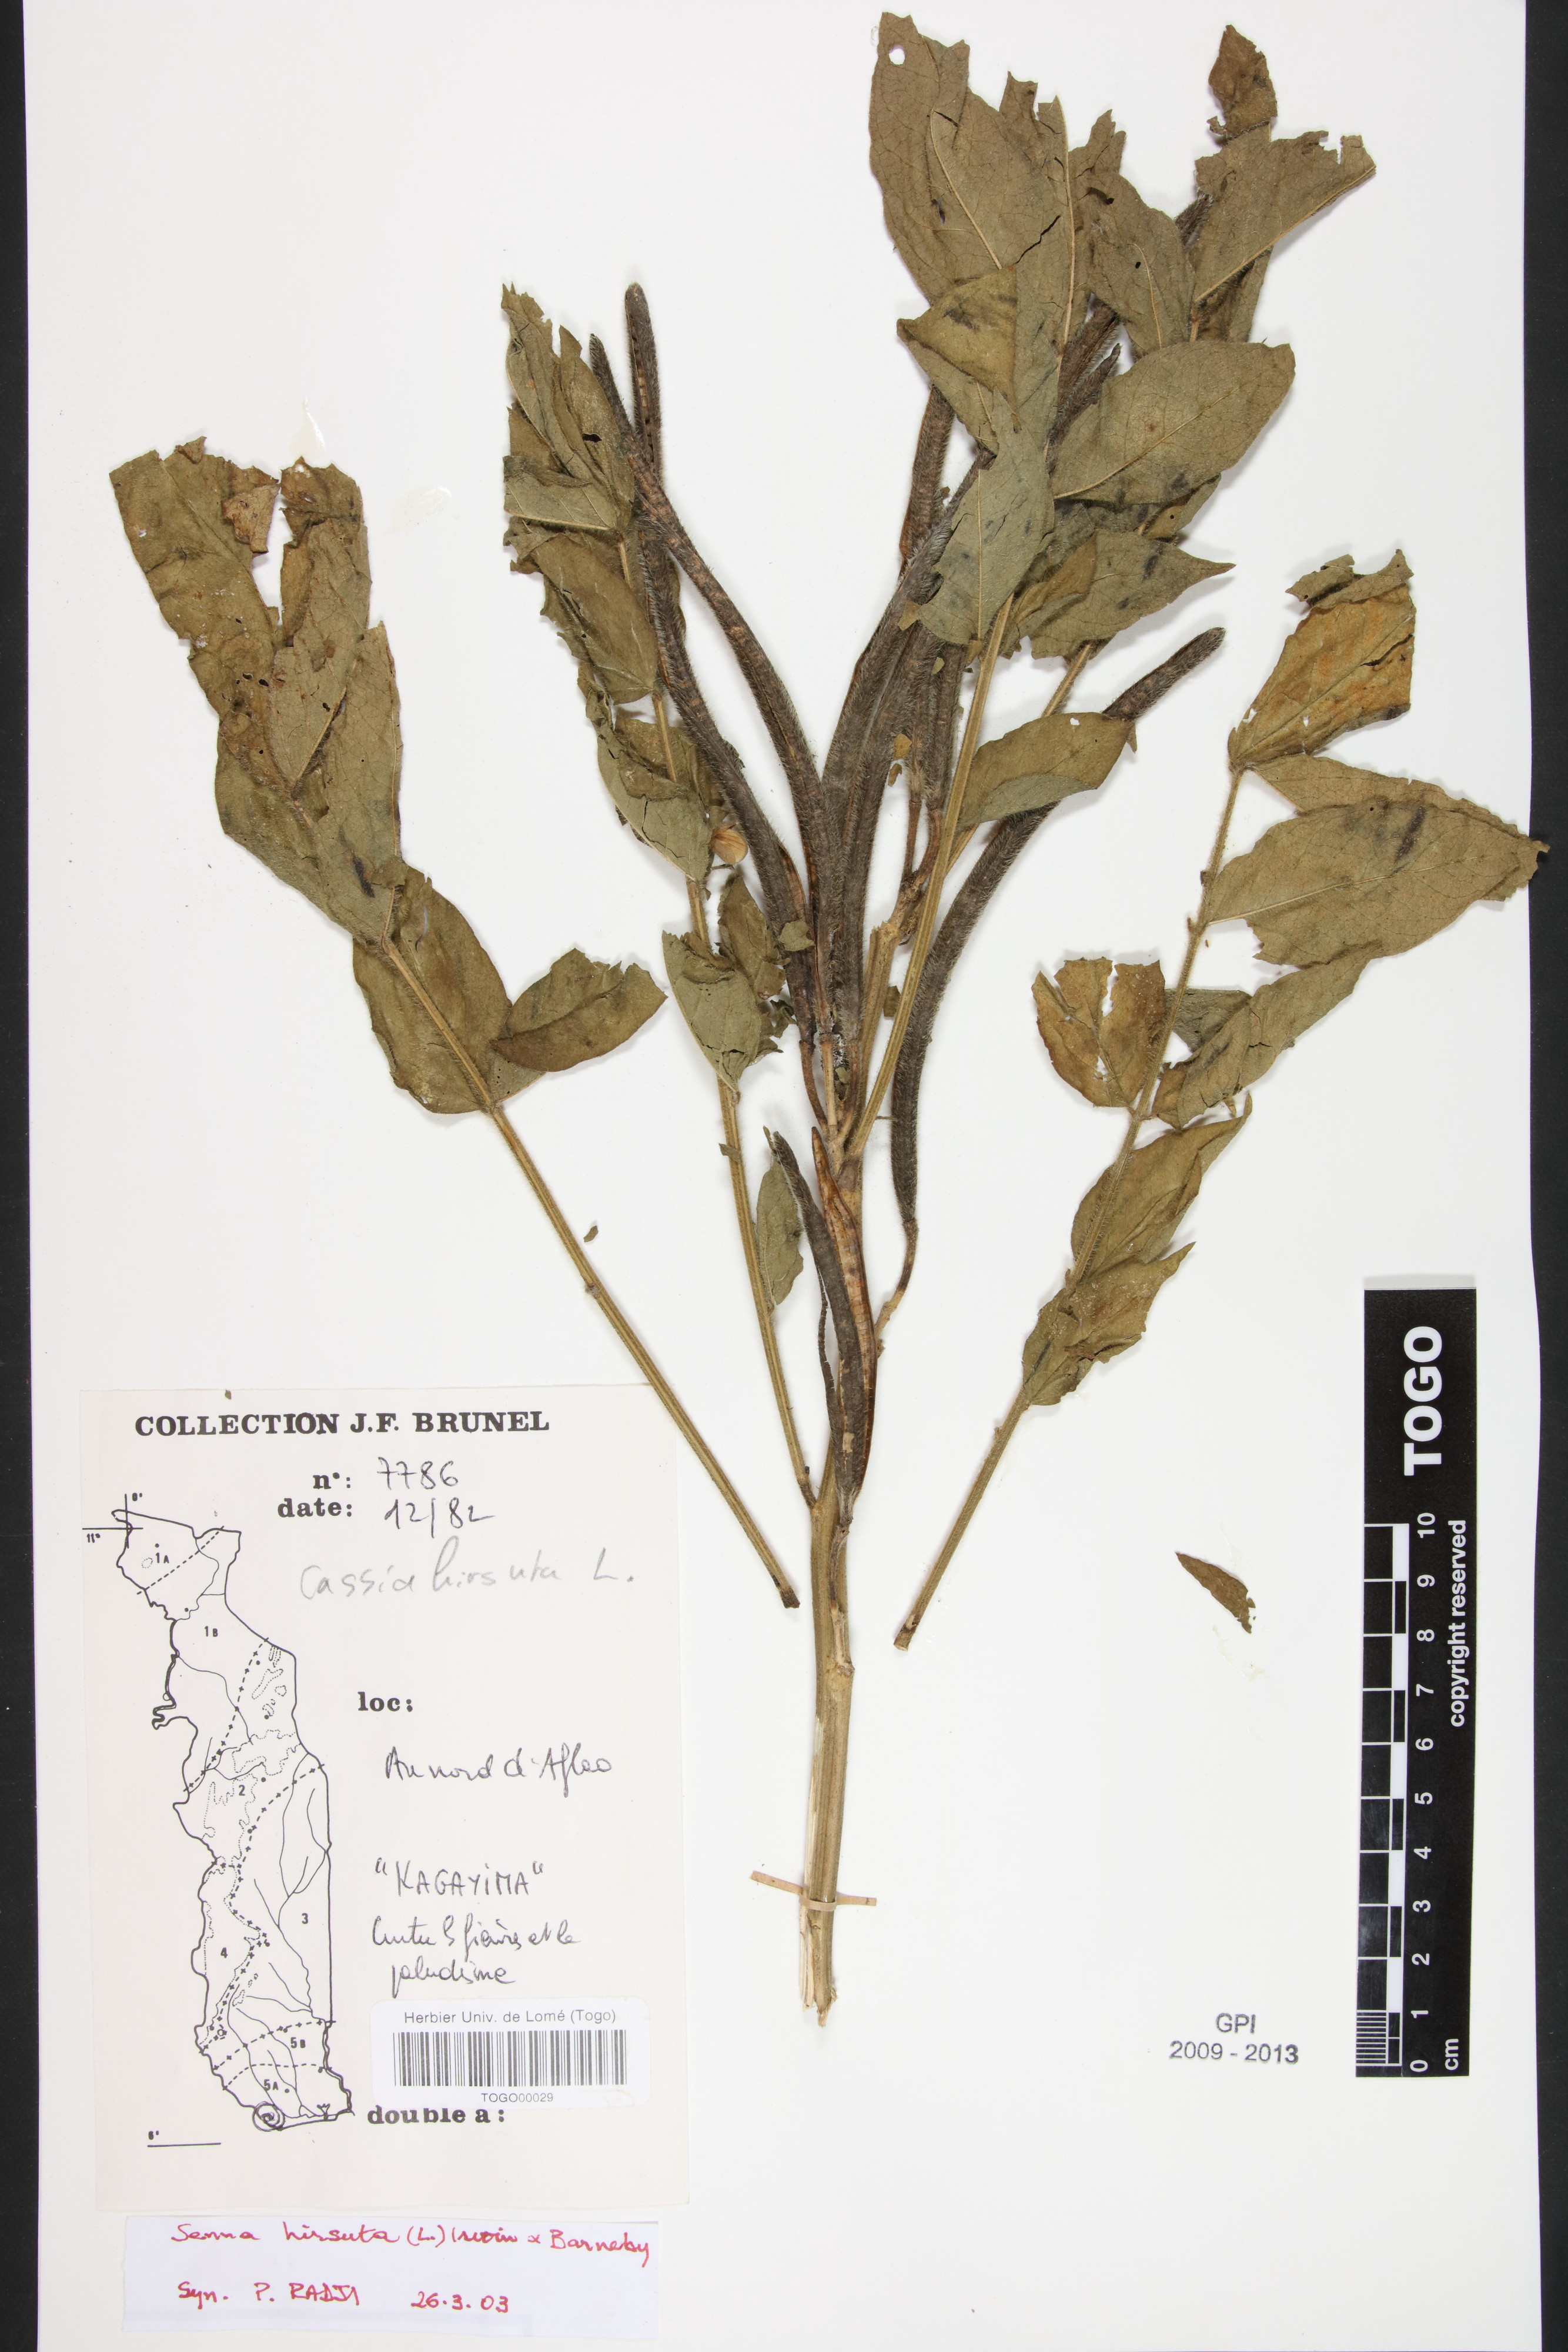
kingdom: Plantae
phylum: Tracheophyta
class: Magnoliopsida
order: Fabales
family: Fabaceae
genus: Senna
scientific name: Senna hirsuta
